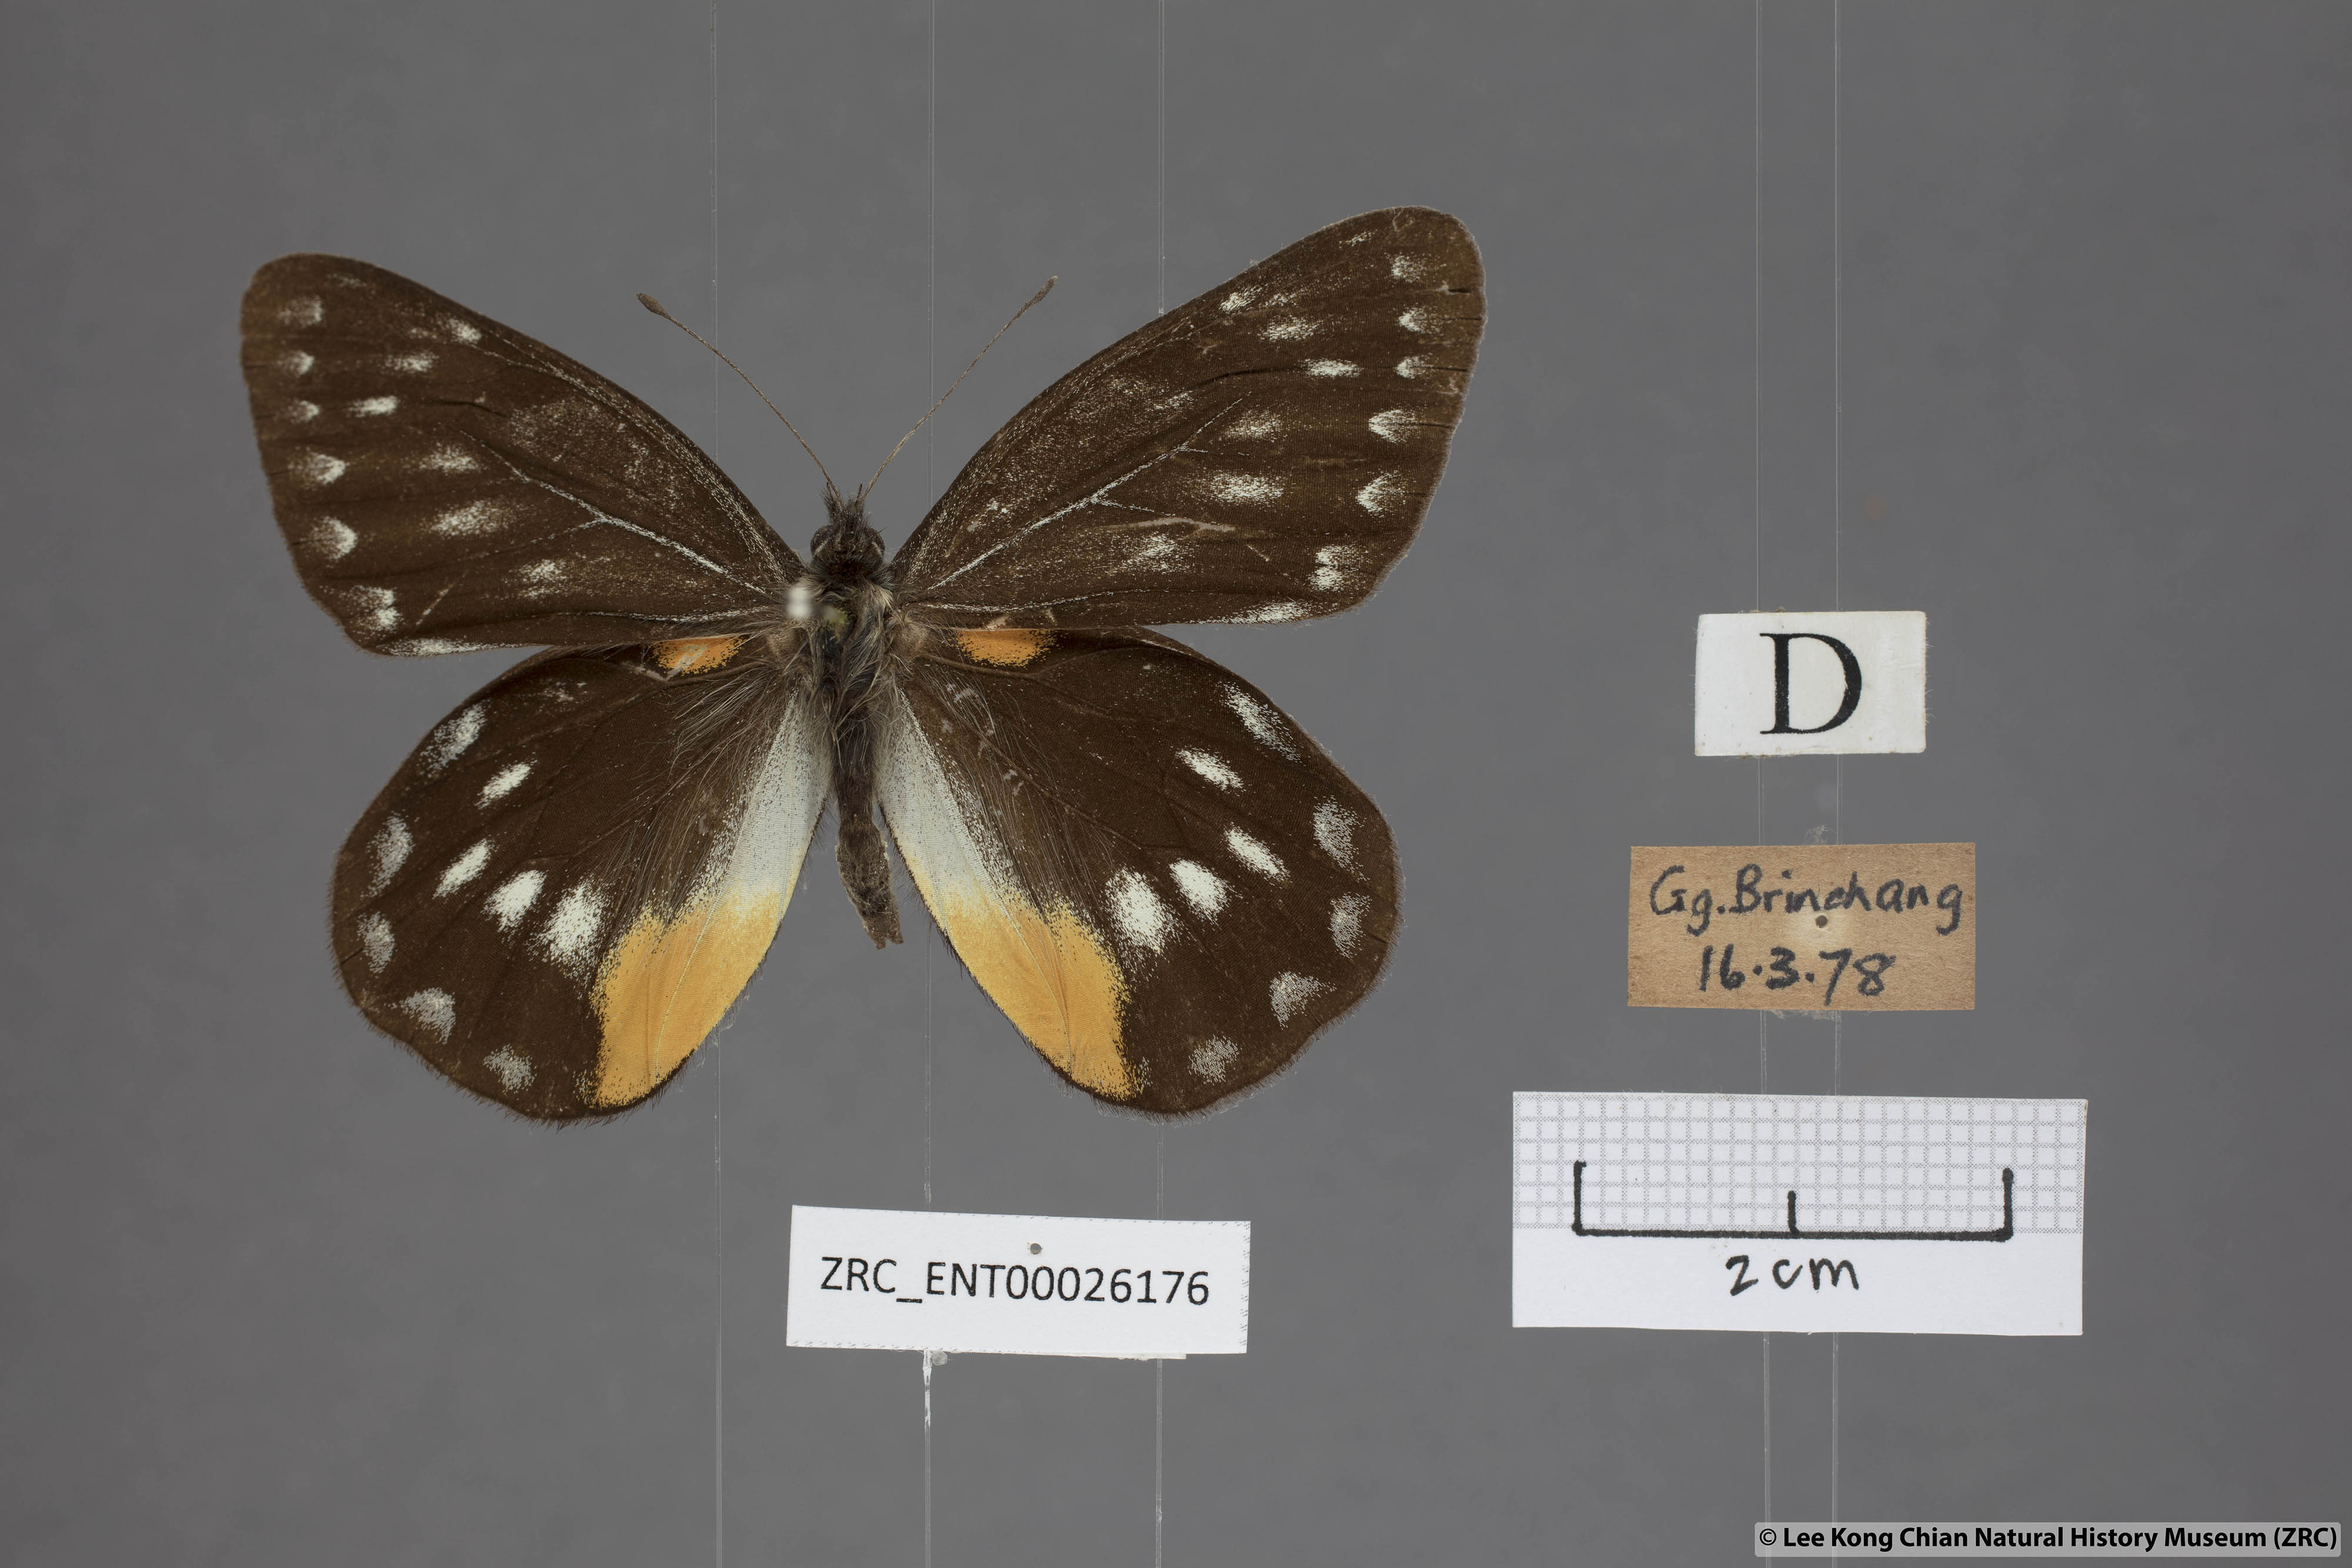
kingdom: Animalia
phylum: Arthropoda
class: Insecta
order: Lepidoptera
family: Pieridae
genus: Delias
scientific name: Delias belladonna
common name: Hill jezebel
